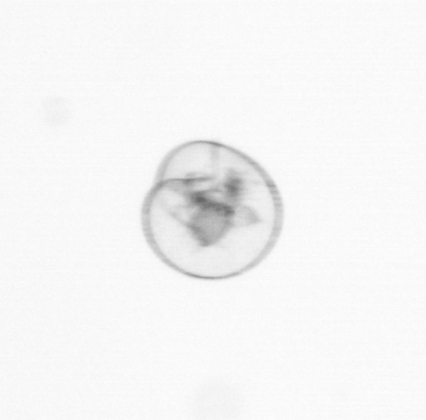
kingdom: Chromista
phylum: Myzozoa
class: Dinophyceae
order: Noctilucales
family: Noctilucaceae
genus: Noctiluca
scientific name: Noctiluca scintillans
